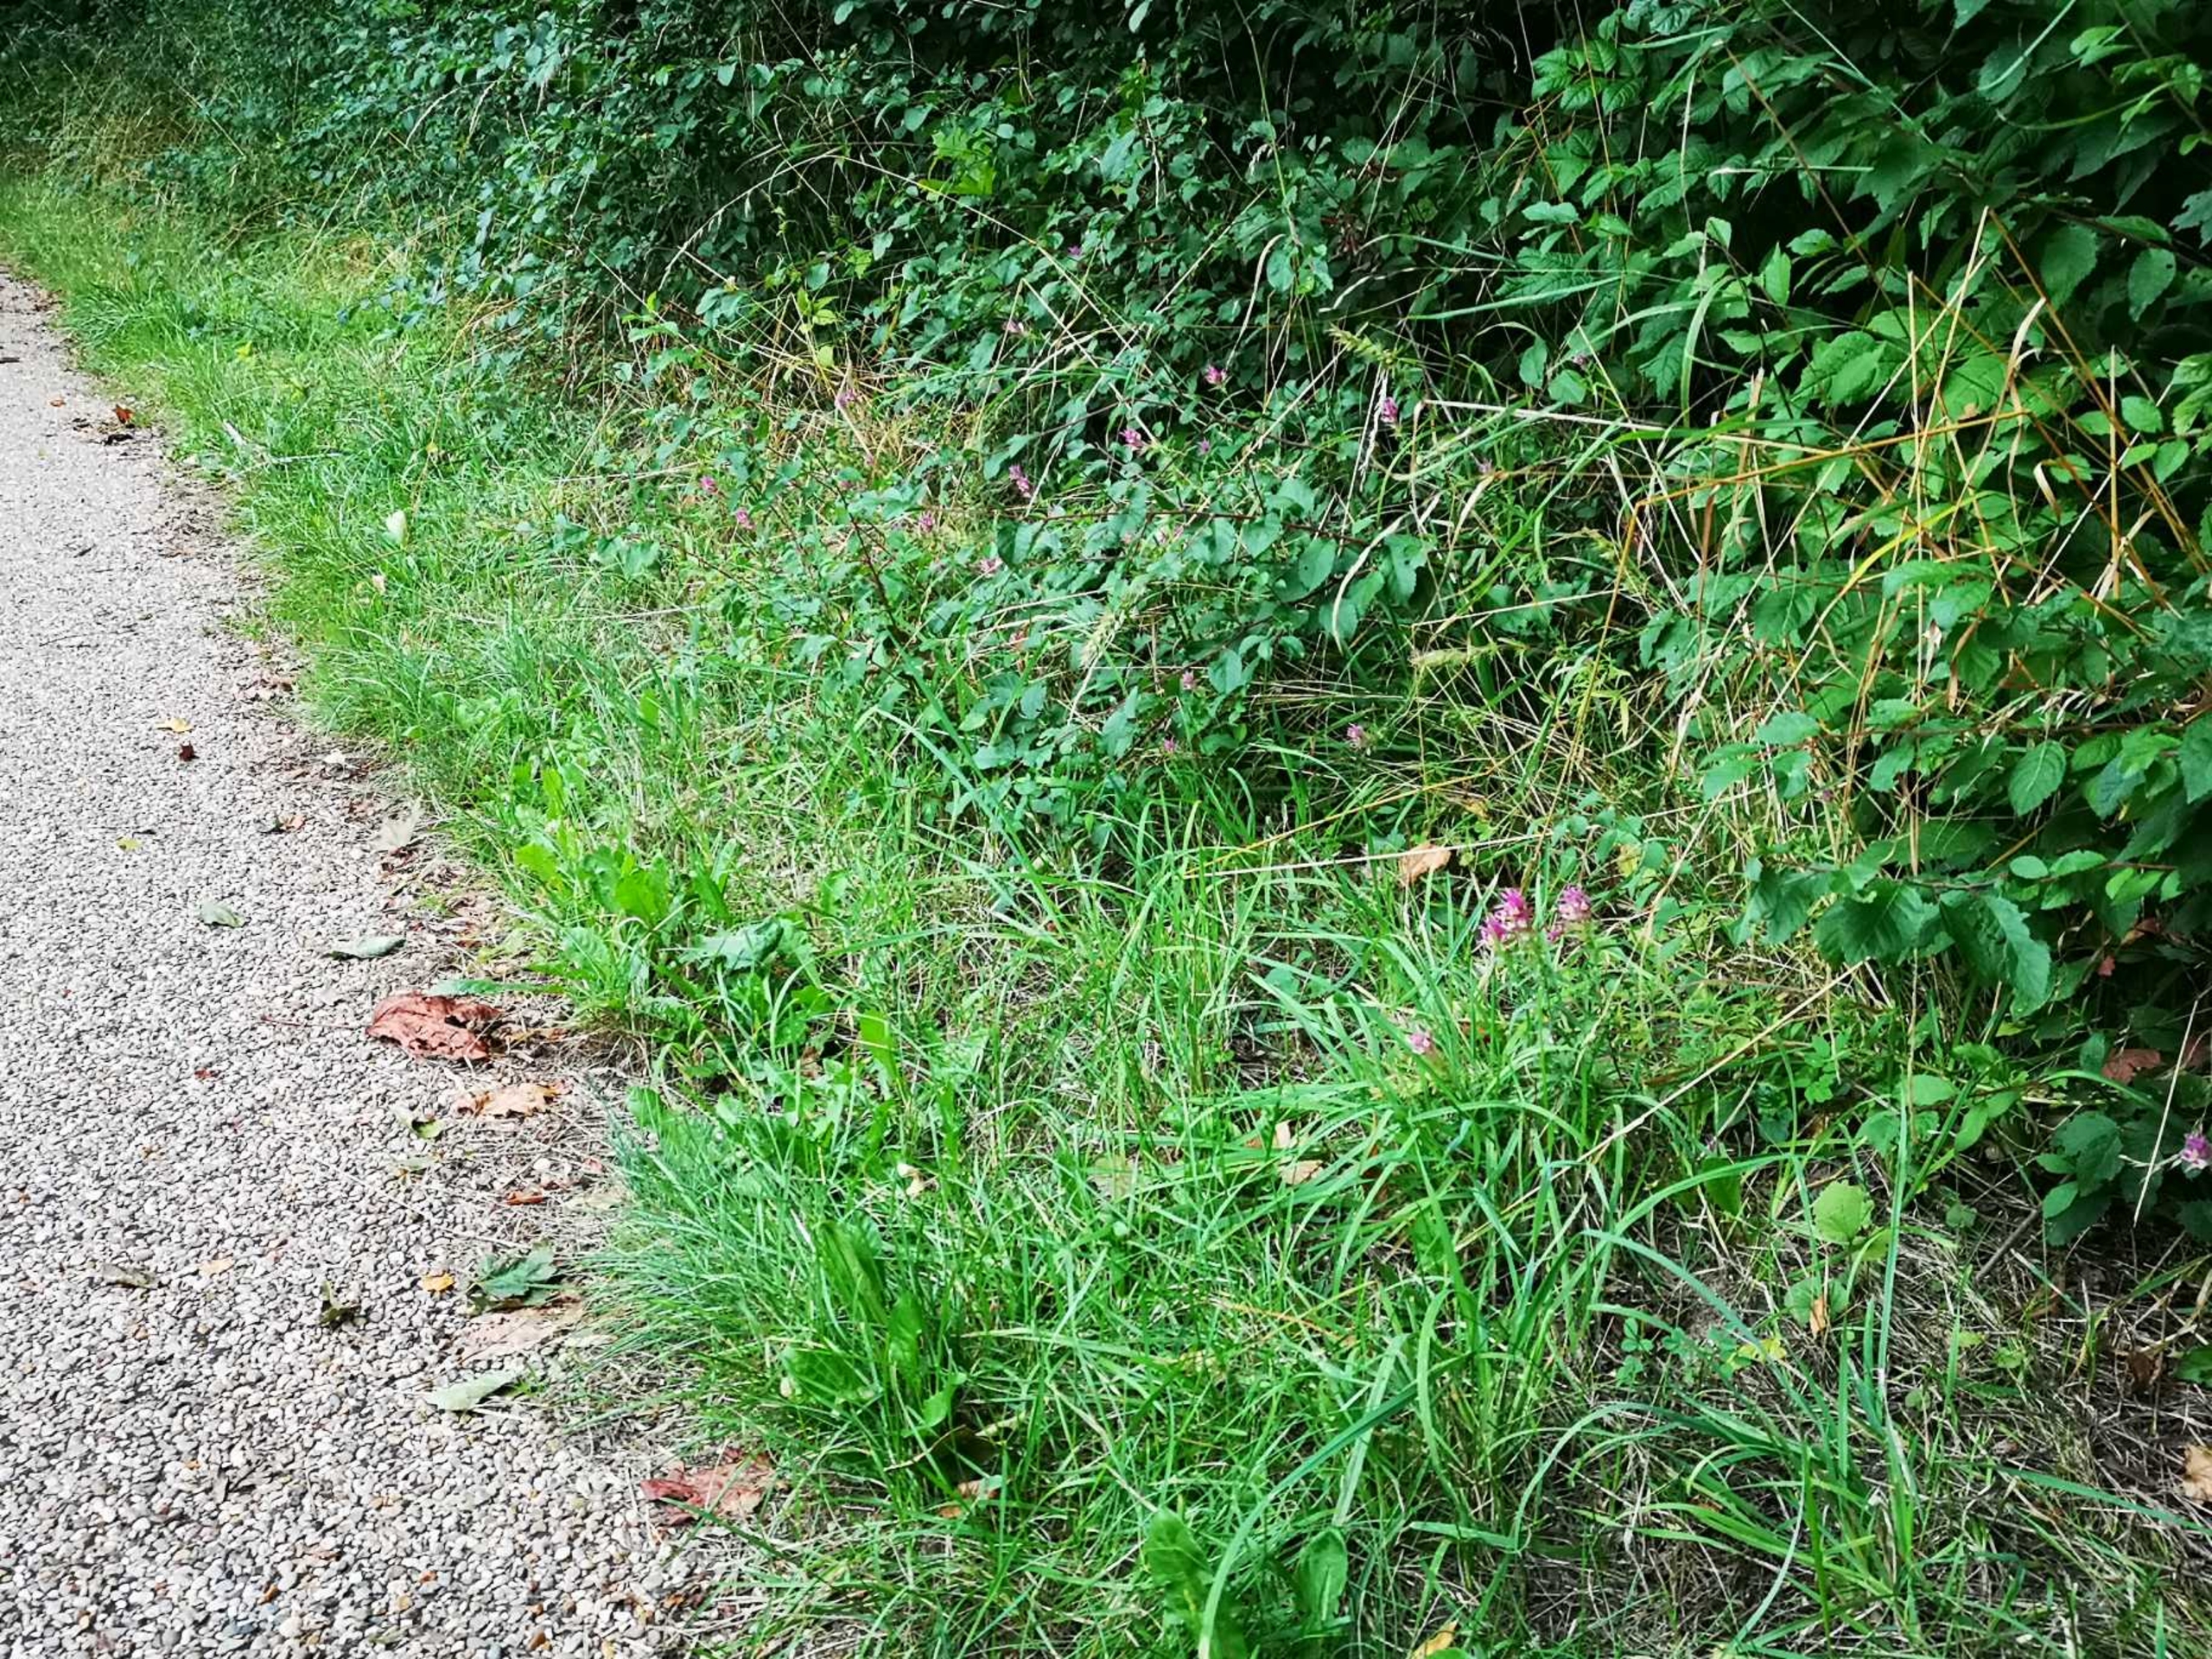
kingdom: Plantae
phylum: Tracheophyta
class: Magnoliopsida
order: Lamiales
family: Orobanchaceae
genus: Melampyrum
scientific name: Melampyrum arvense
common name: Ager-kohvede
